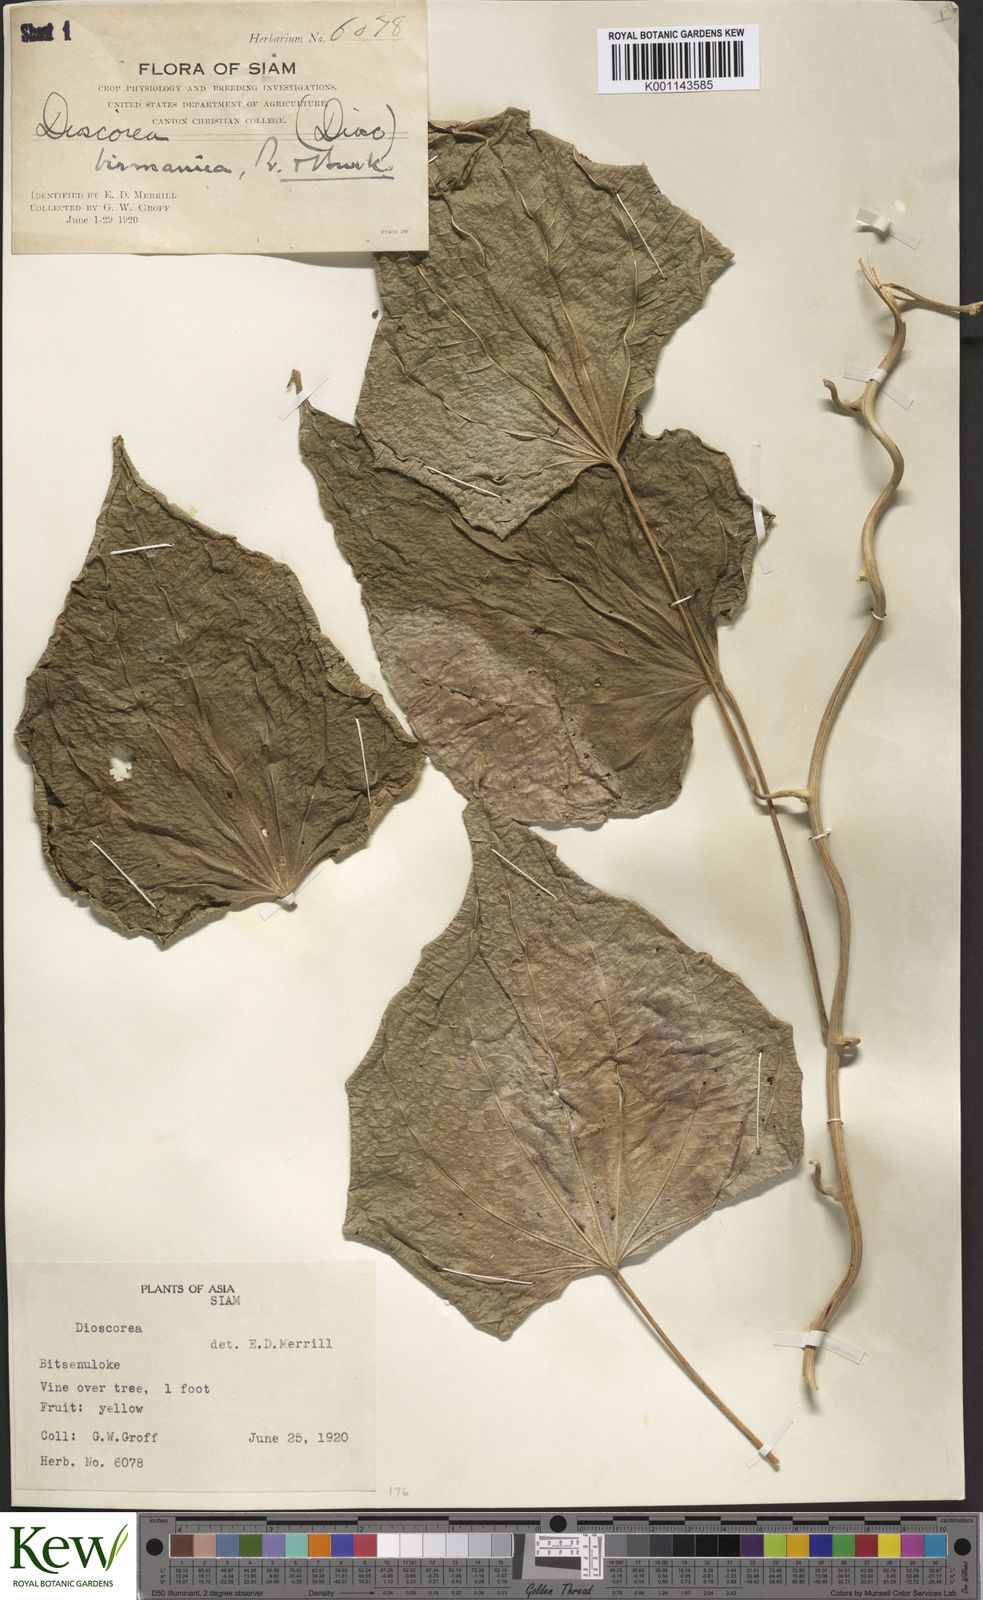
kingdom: Plantae
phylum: Tracheophyta
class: Liliopsida
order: Dioscoreales
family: Dioscoreaceae
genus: Dioscorea
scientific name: Dioscorea birmanica
